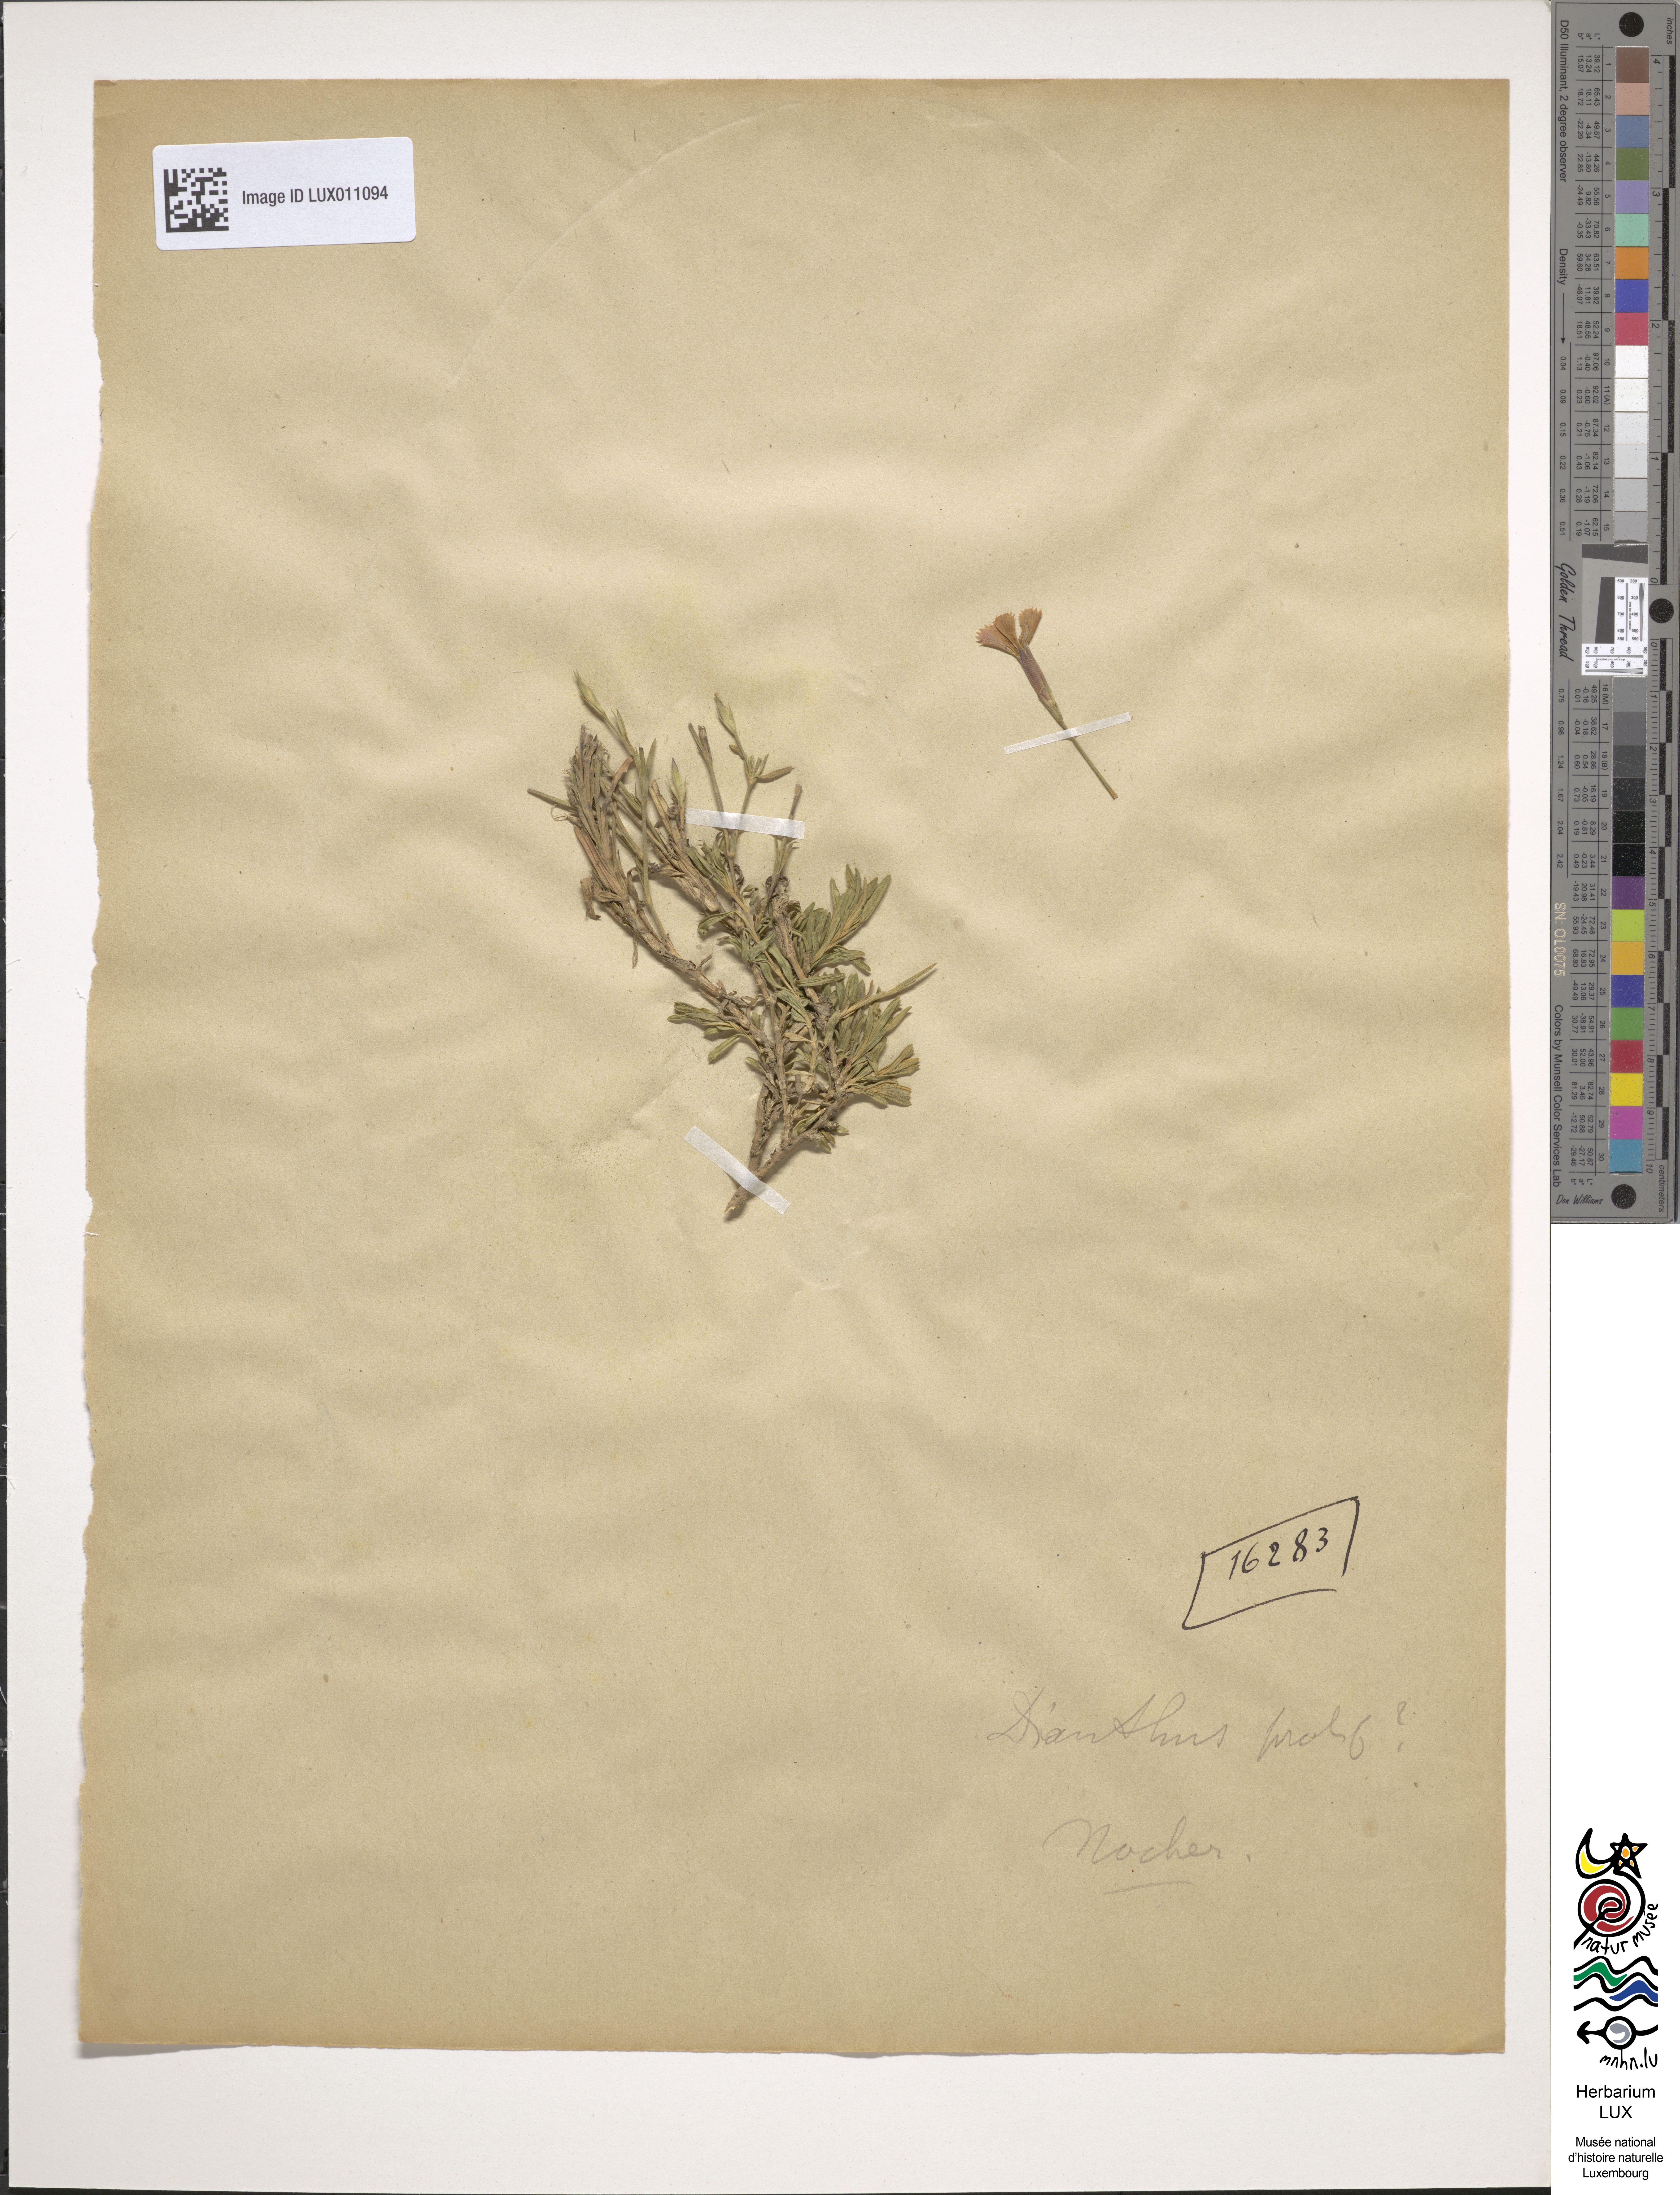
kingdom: Plantae
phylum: Tracheophyta
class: Magnoliopsida
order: Caryophyllales
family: Caryophyllaceae
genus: Petrorhagia
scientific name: Petrorhagia prolifera
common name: Proliferous pink
